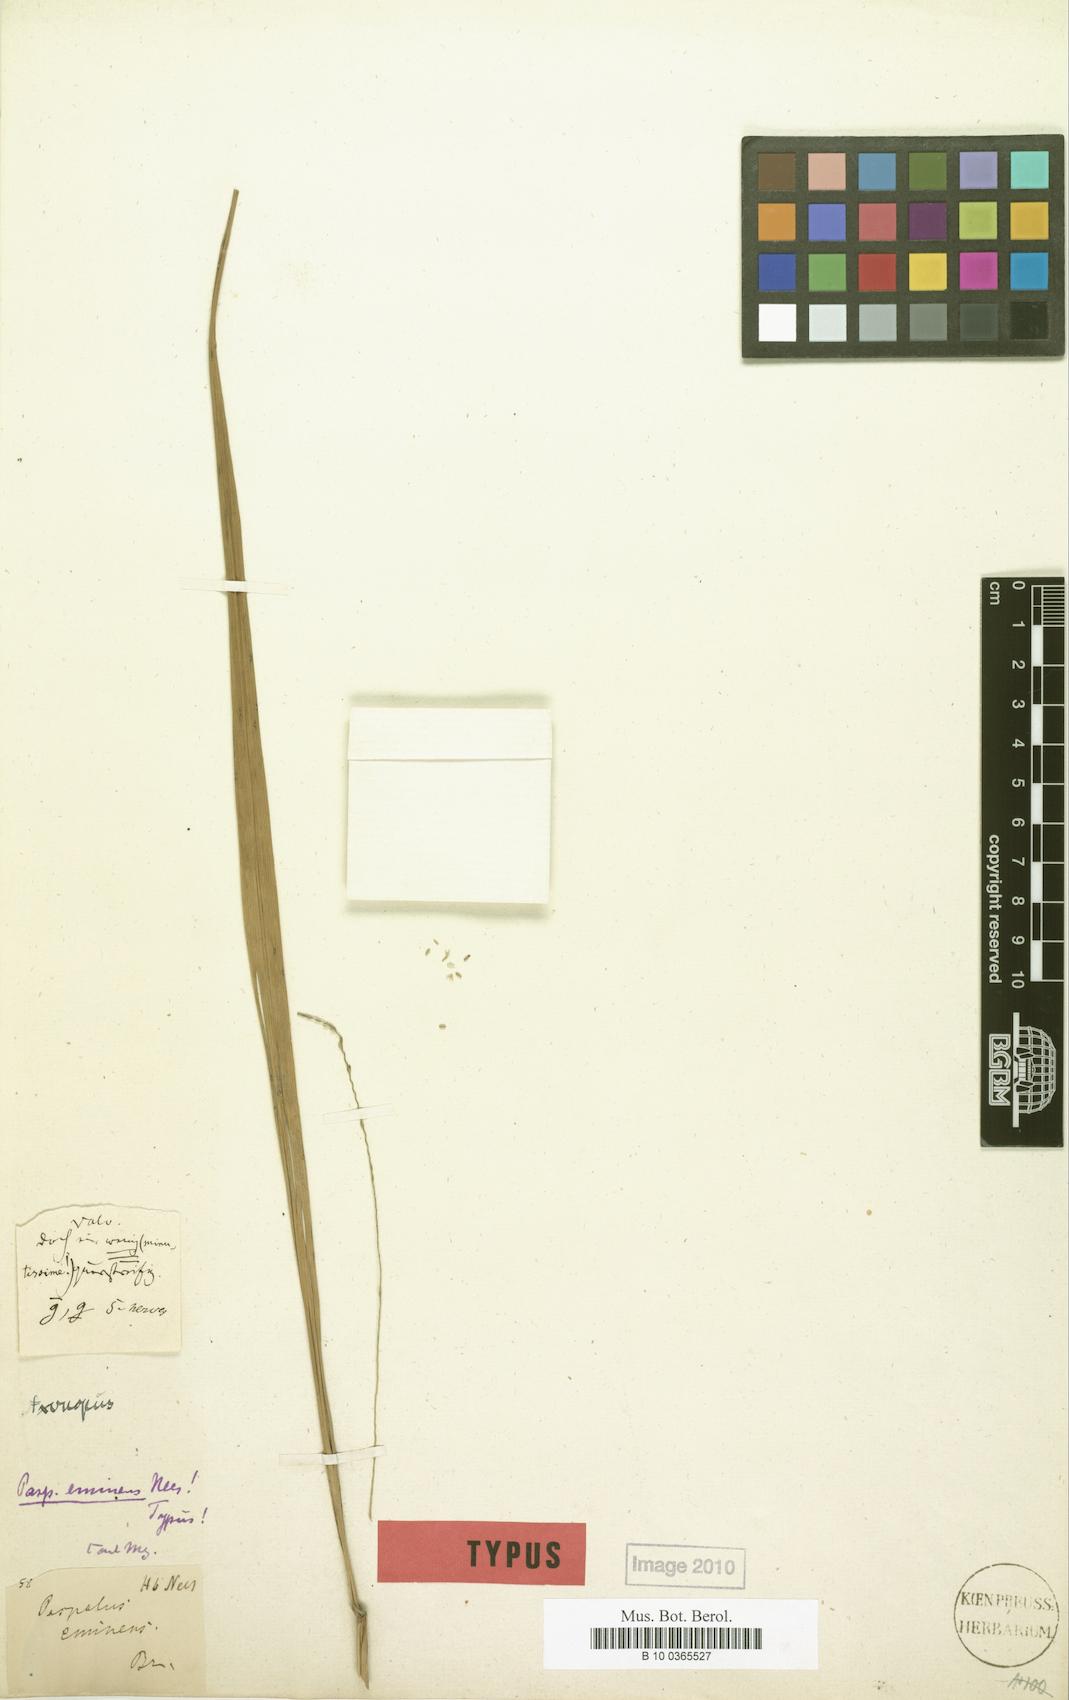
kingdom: Plantae
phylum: Tracheophyta
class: Liliopsida
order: Poales
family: Poaceae
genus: Axonopus
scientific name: Axonopus eminens
